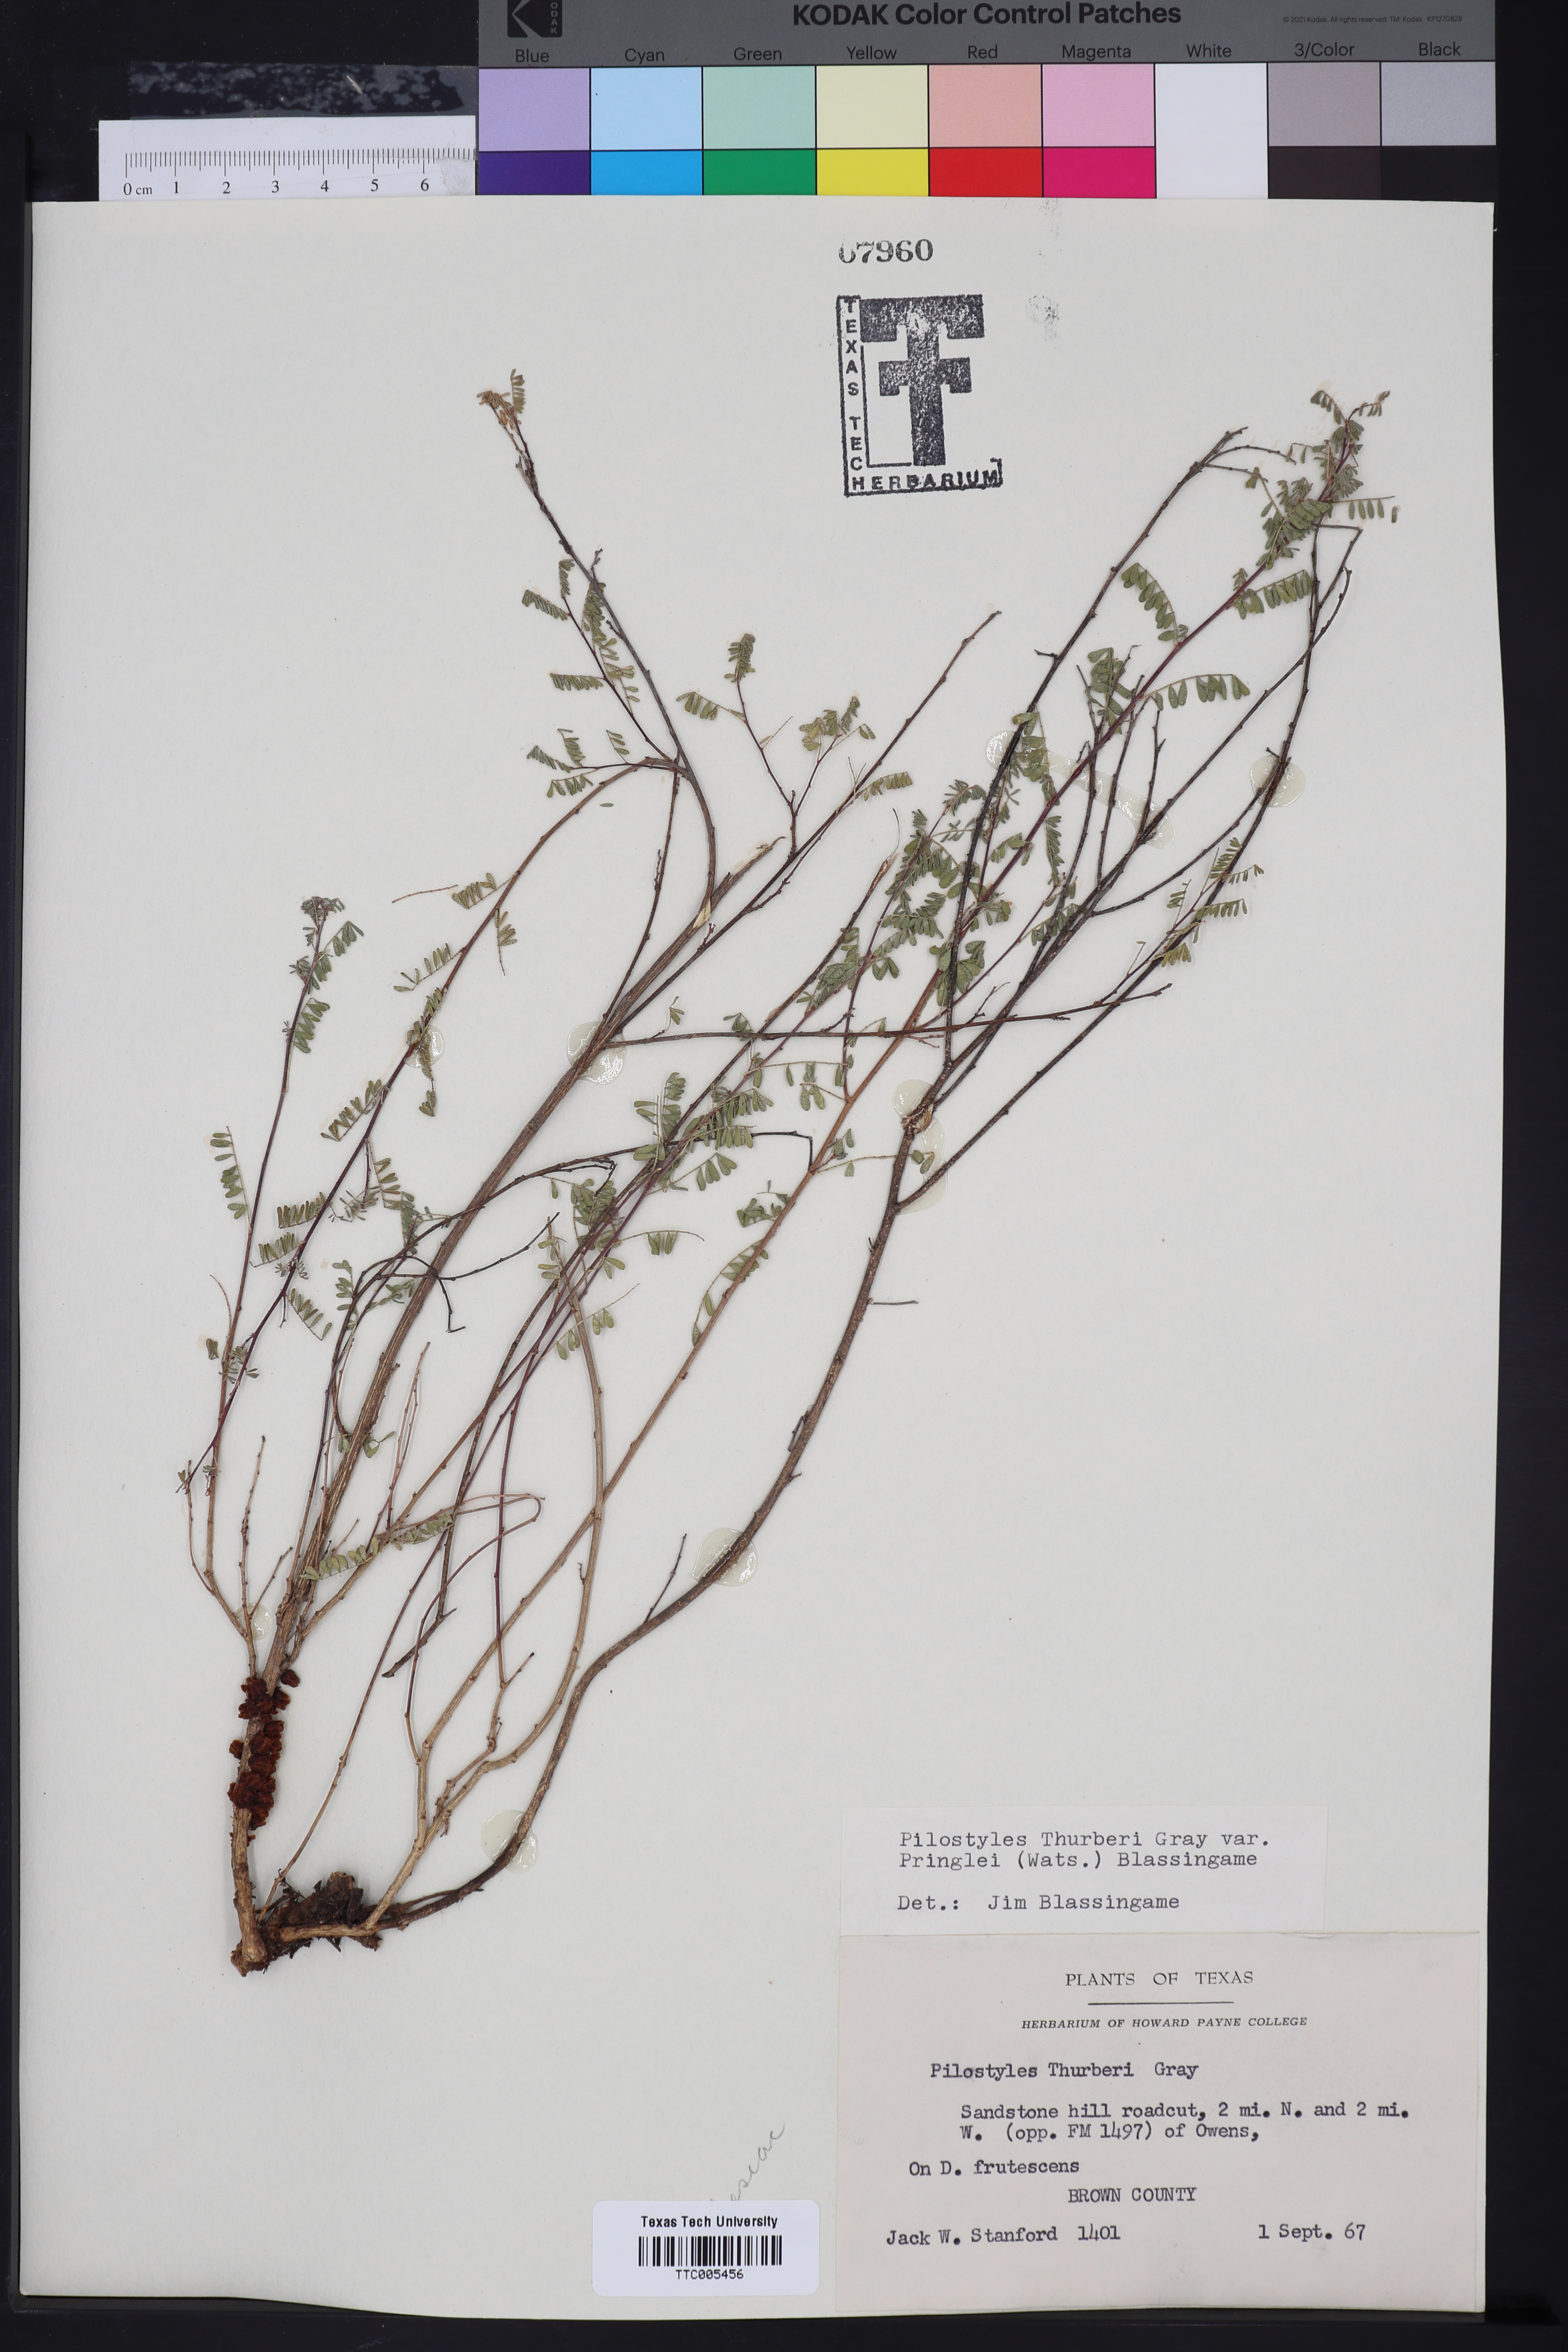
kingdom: Plantae
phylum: Tracheophyta
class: Magnoliopsida
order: Cucurbitales
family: Apodanthaceae
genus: Pilostyles
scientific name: Pilostyles thurberi
